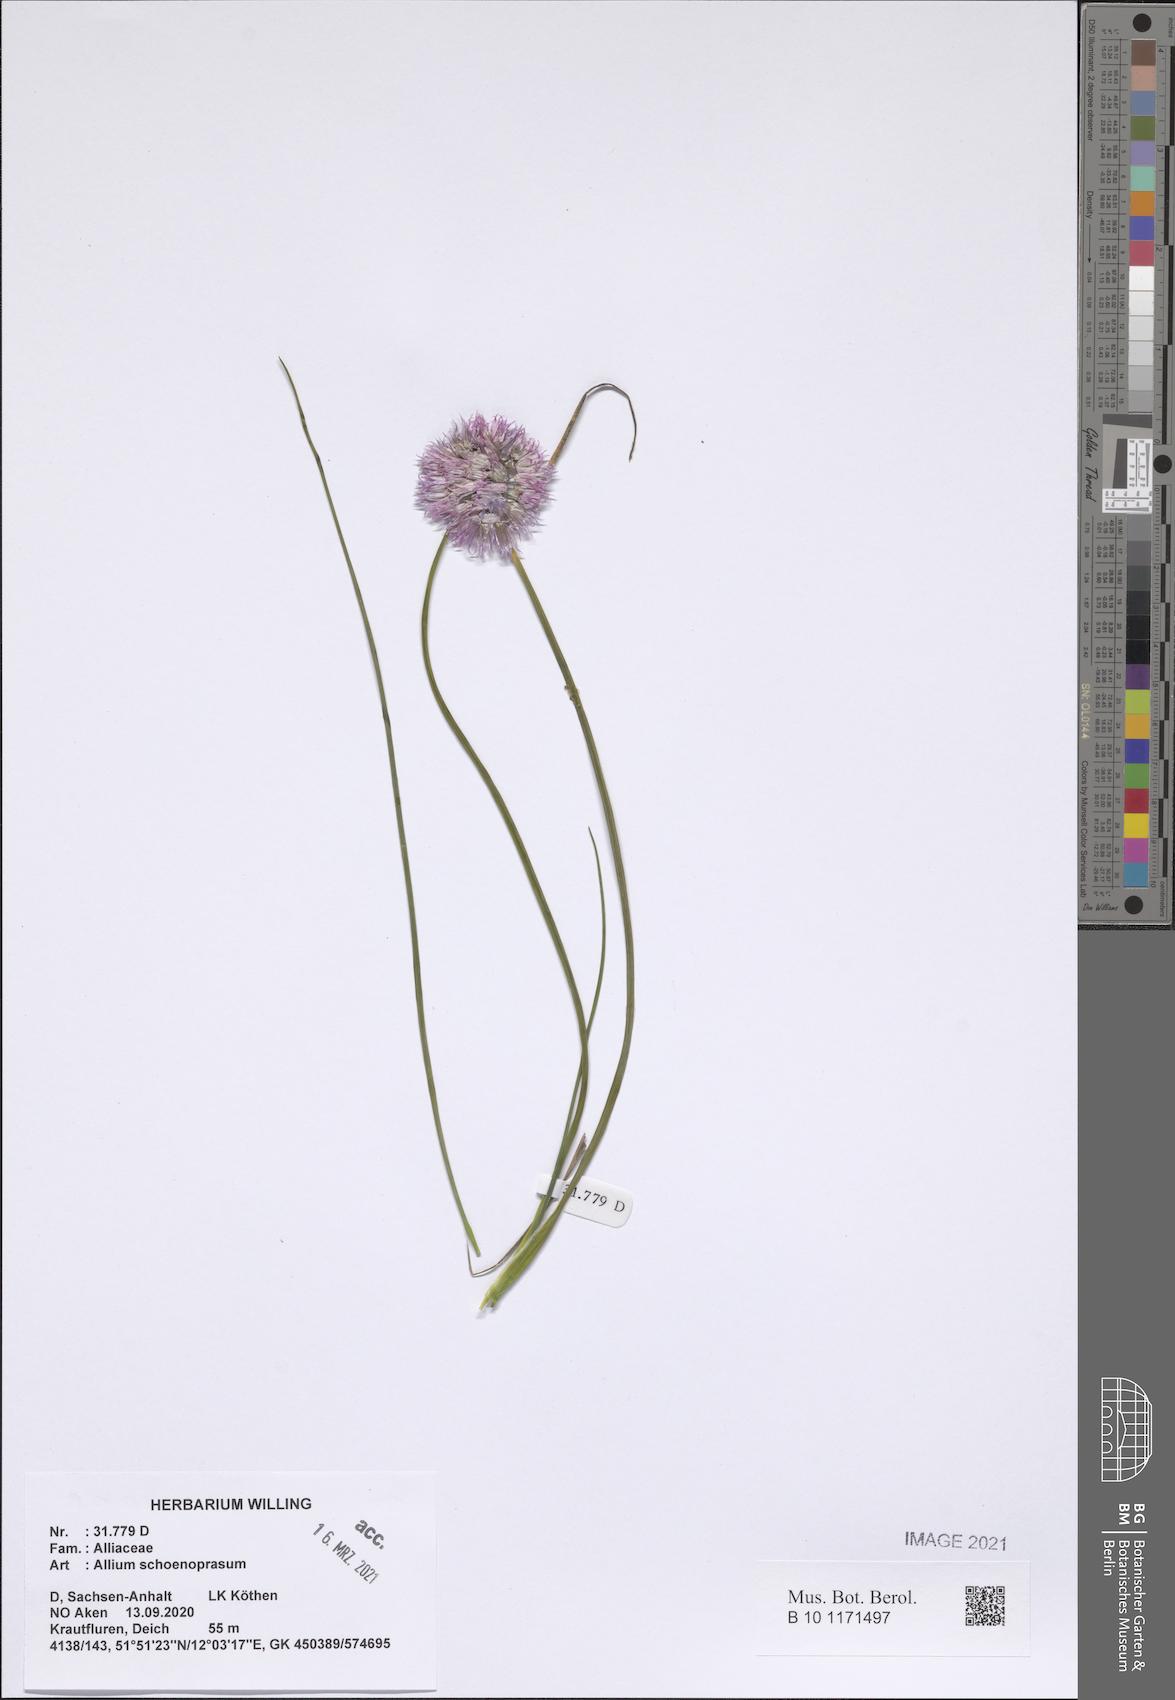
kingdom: Plantae
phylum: Tracheophyta
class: Liliopsida
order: Asparagales
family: Amaryllidaceae
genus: Allium
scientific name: Allium schoenoprasum
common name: Chives
